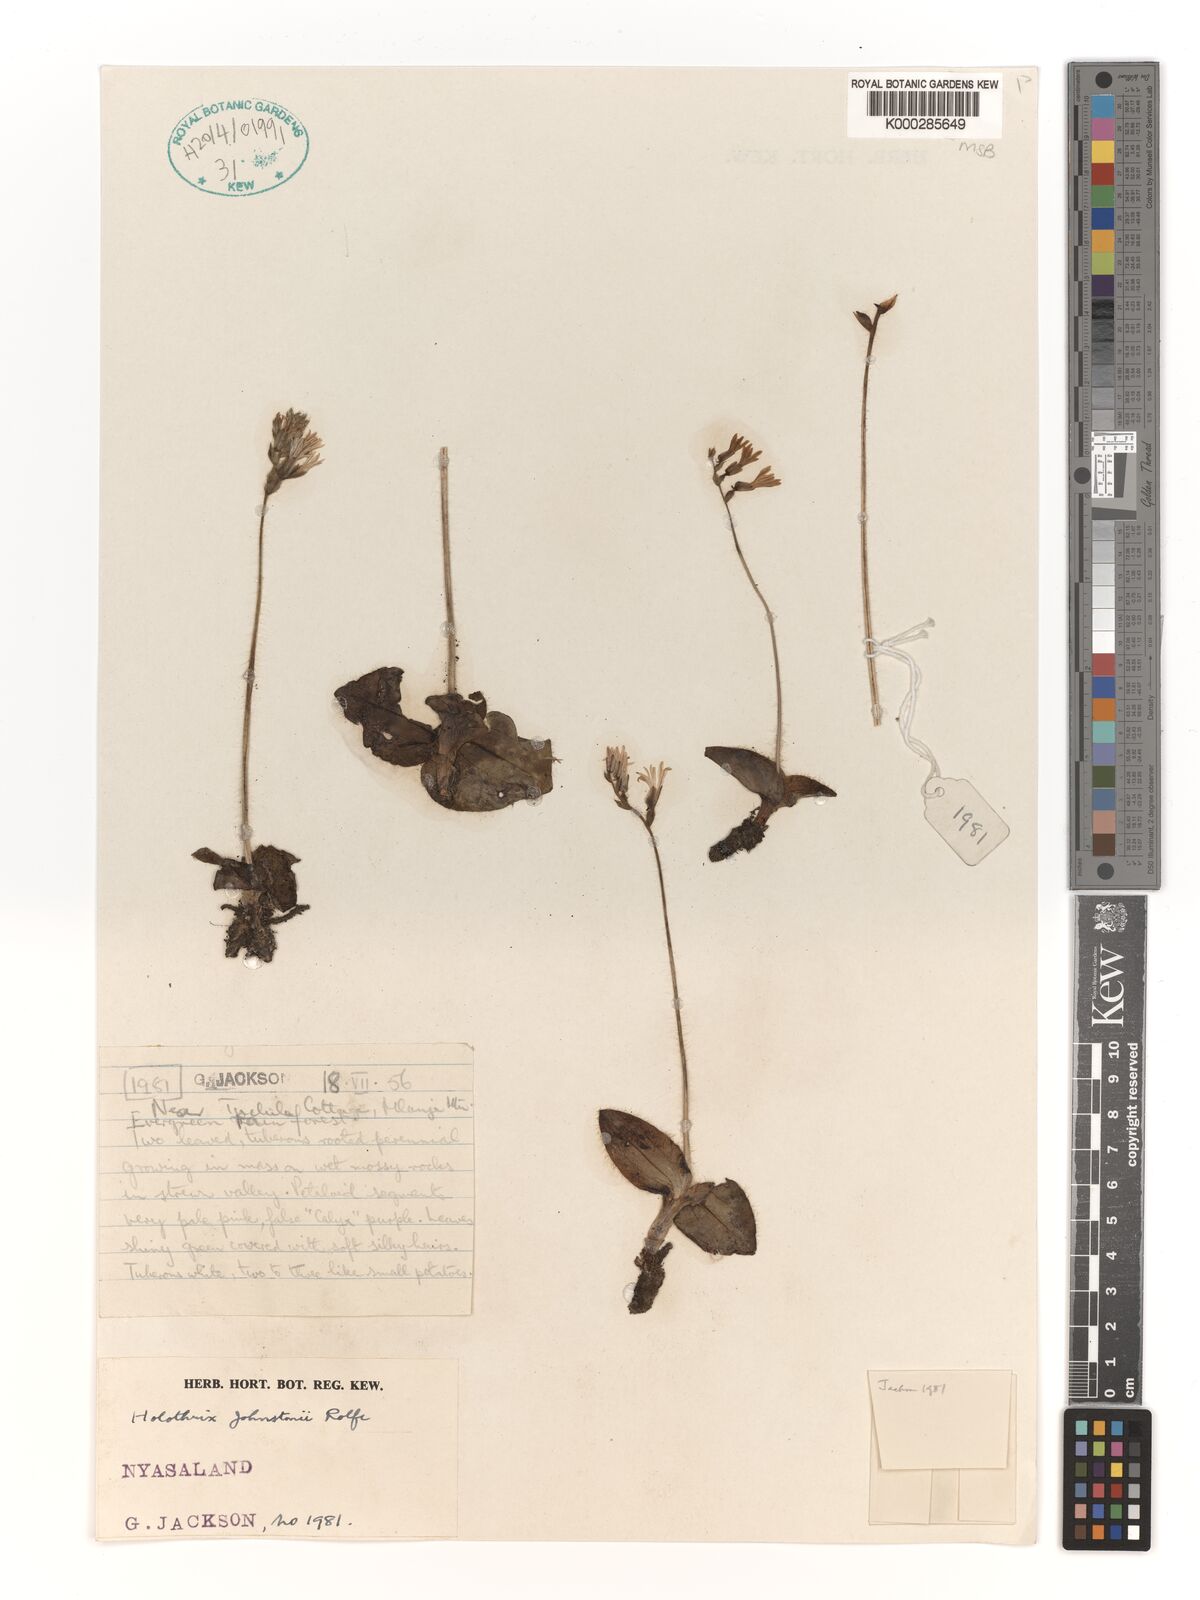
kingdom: Plantae
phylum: Tracheophyta
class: Liliopsida
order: Asparagales
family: Orchidaceae
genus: Holothrix
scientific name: Holothrix johnstonii
